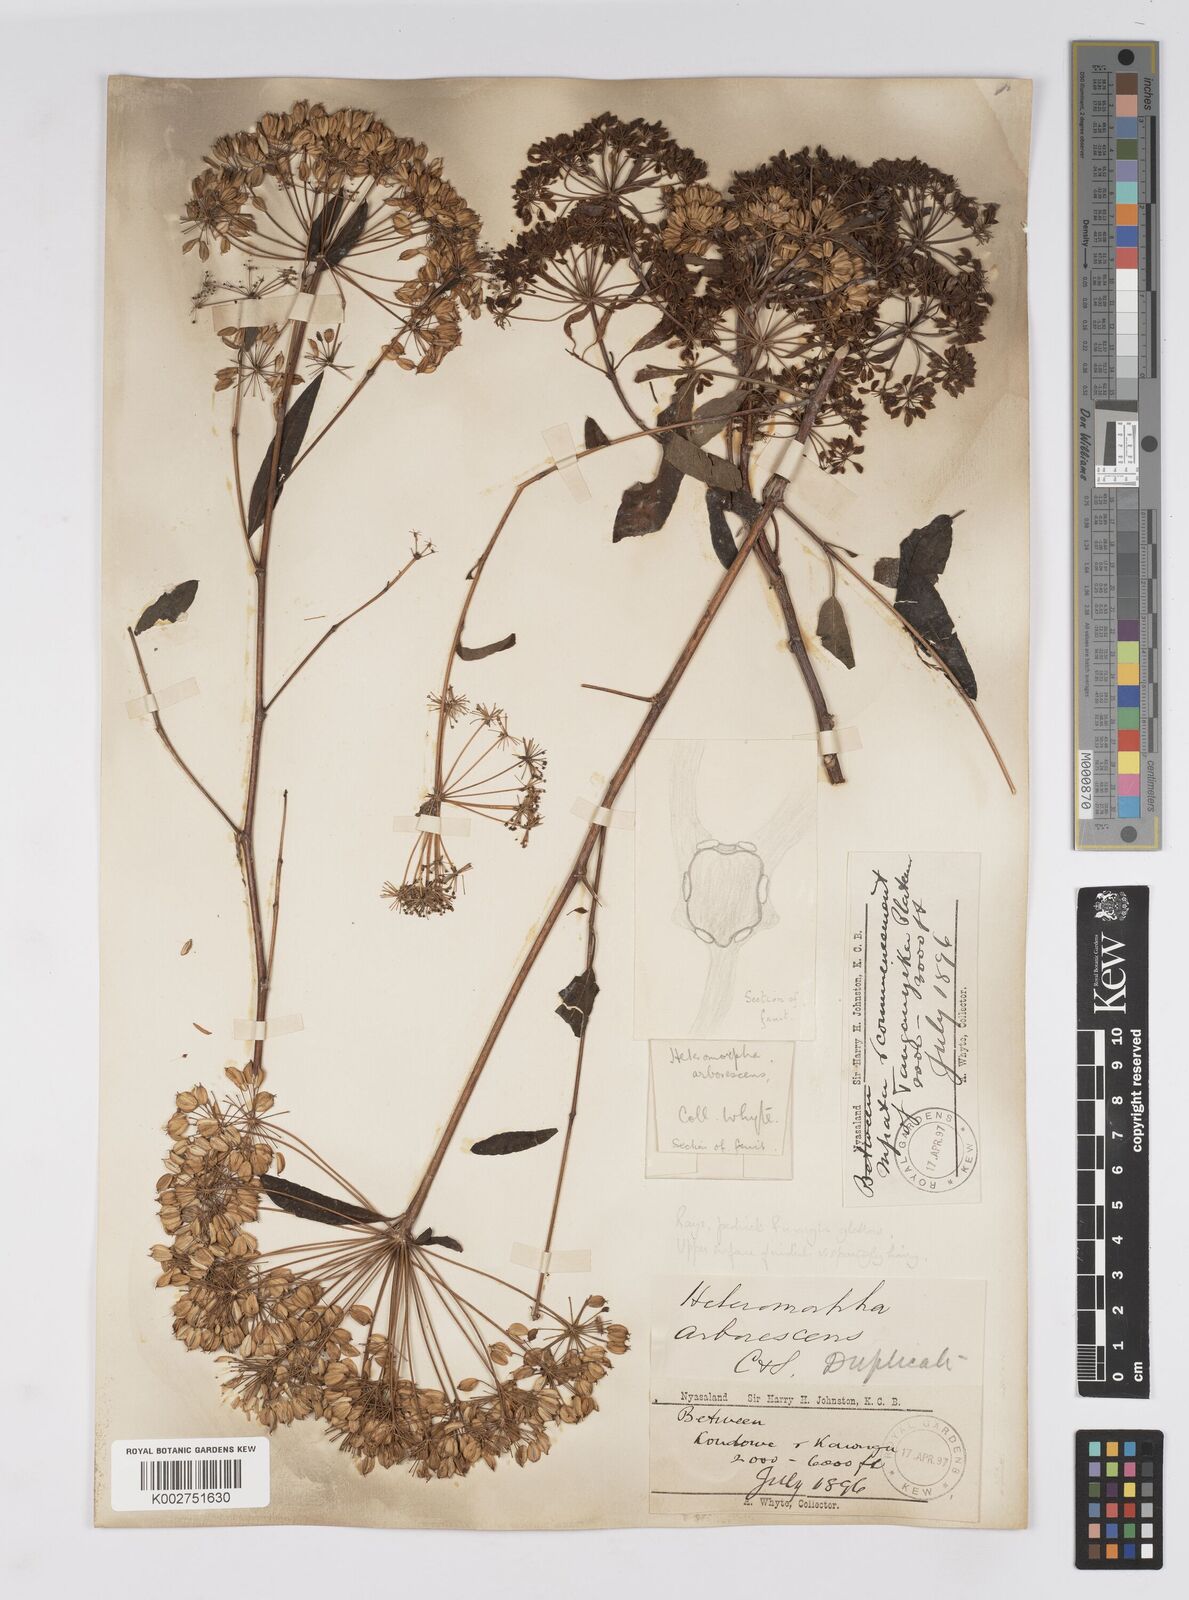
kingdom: Plantae
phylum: Tracheophyta
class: Magnoliopsida
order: Apiales
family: Apiaceae
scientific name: Apiaceae
